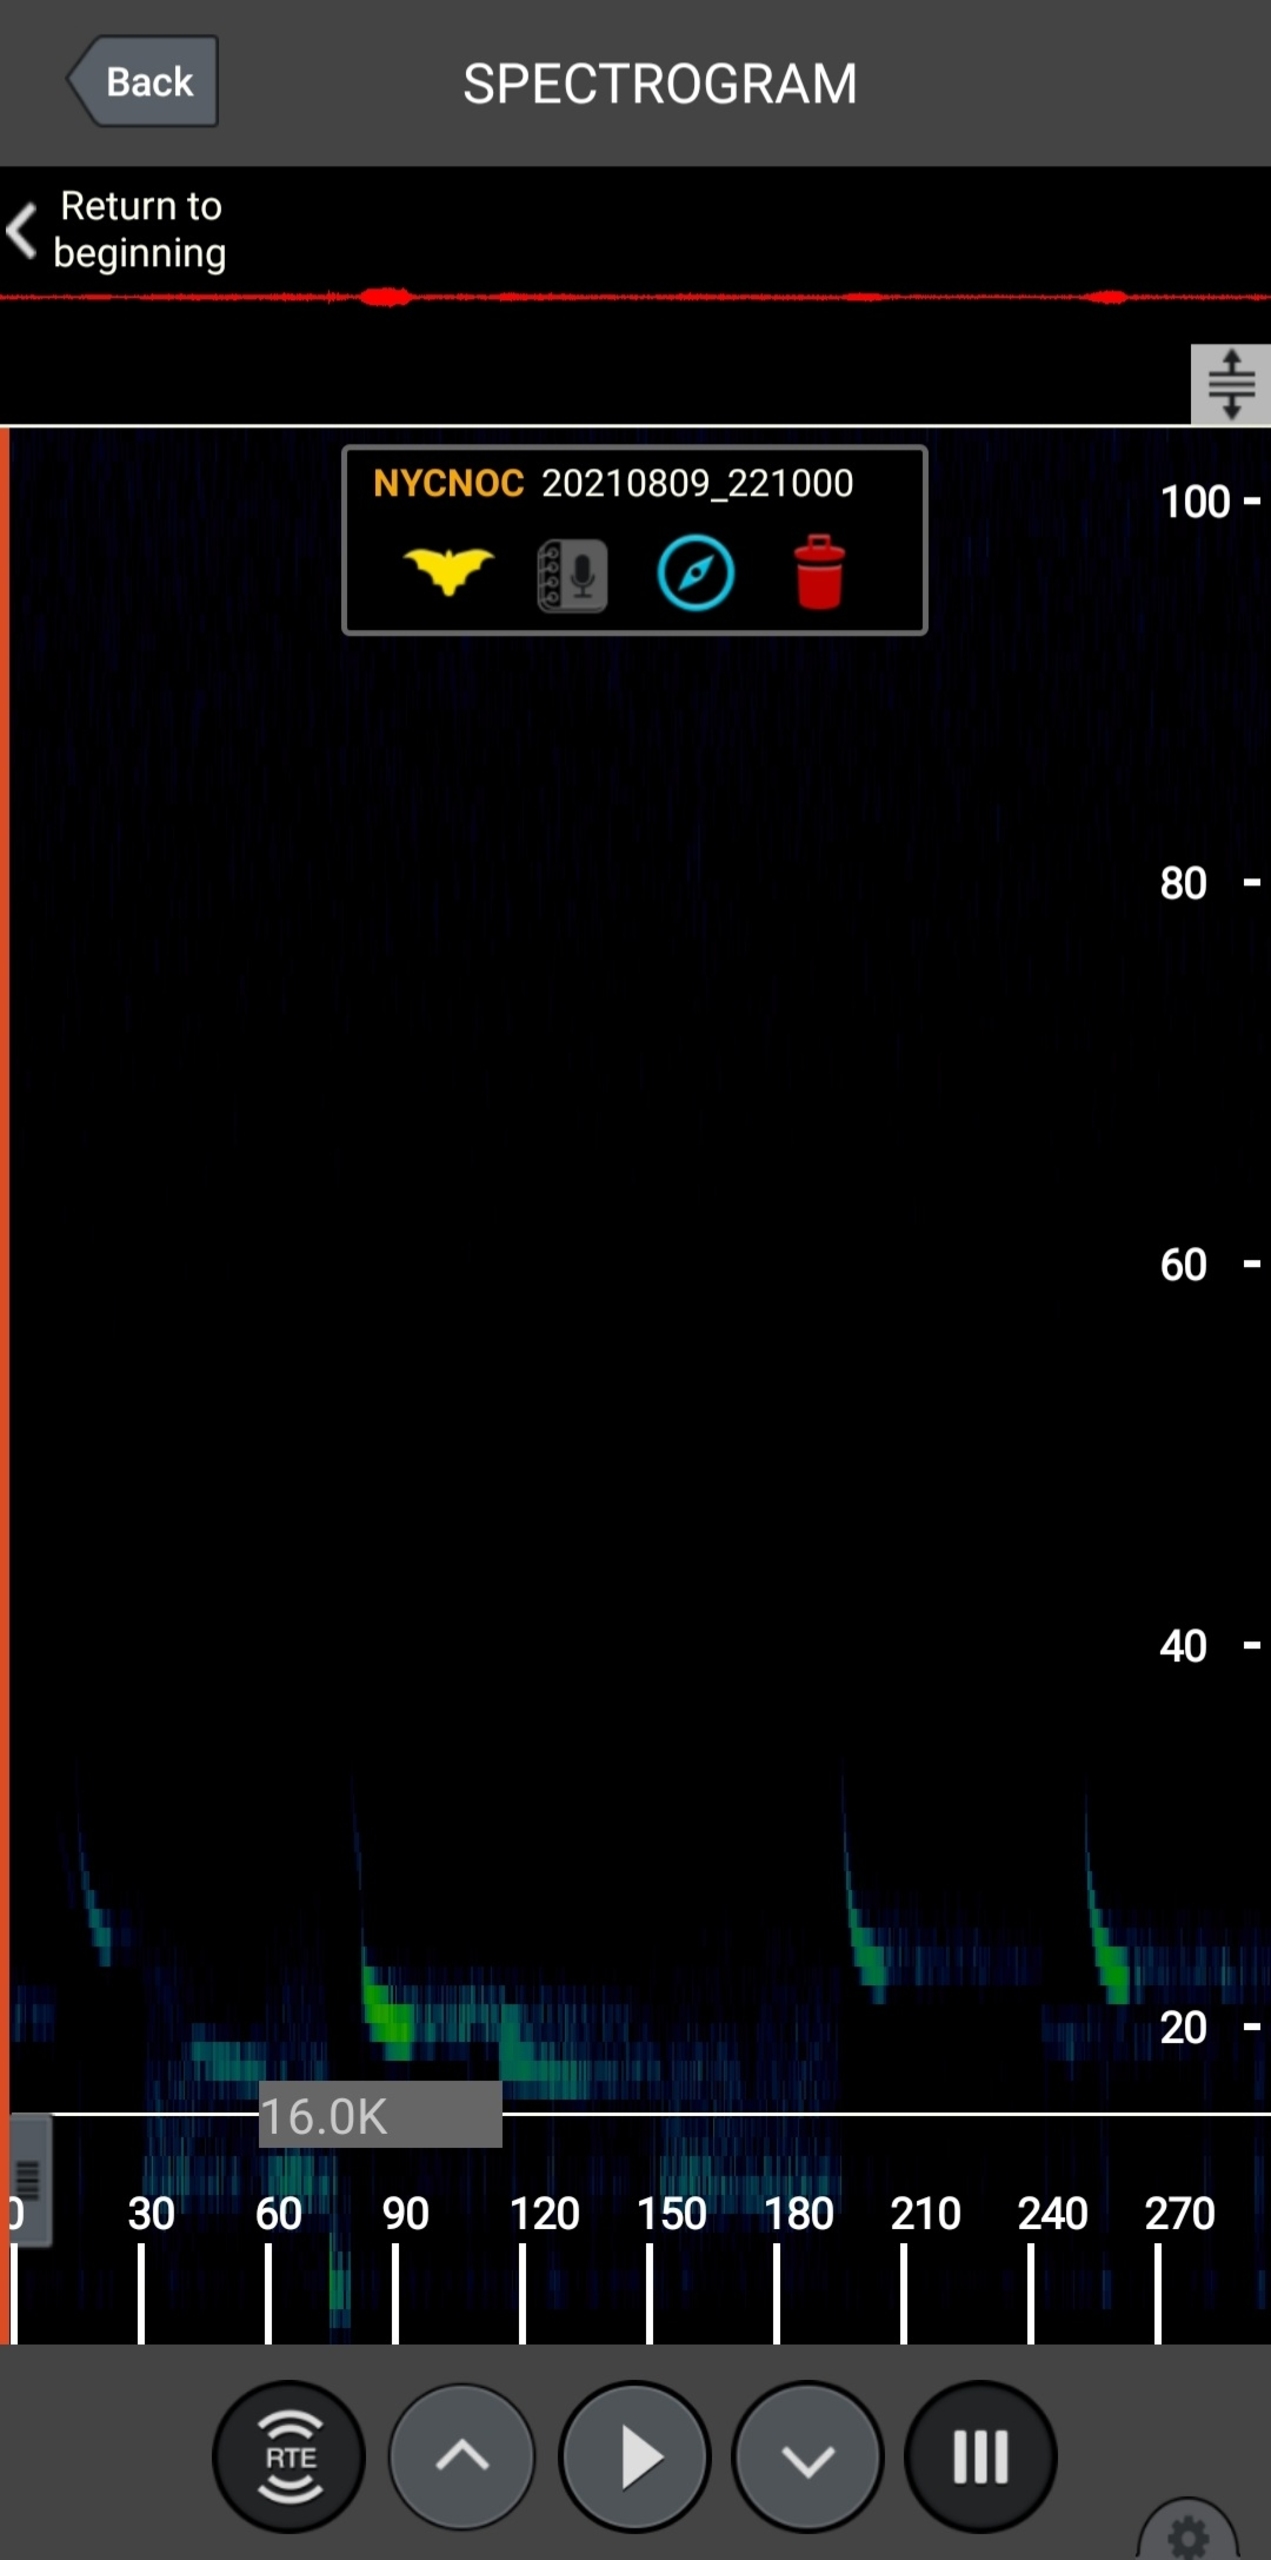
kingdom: Animalia
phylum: Chordata
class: Mammalia
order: Chiroptera
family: Vespertilionidae
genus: Nyctalus
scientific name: Nyctalus noctula
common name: Brunflagermus
